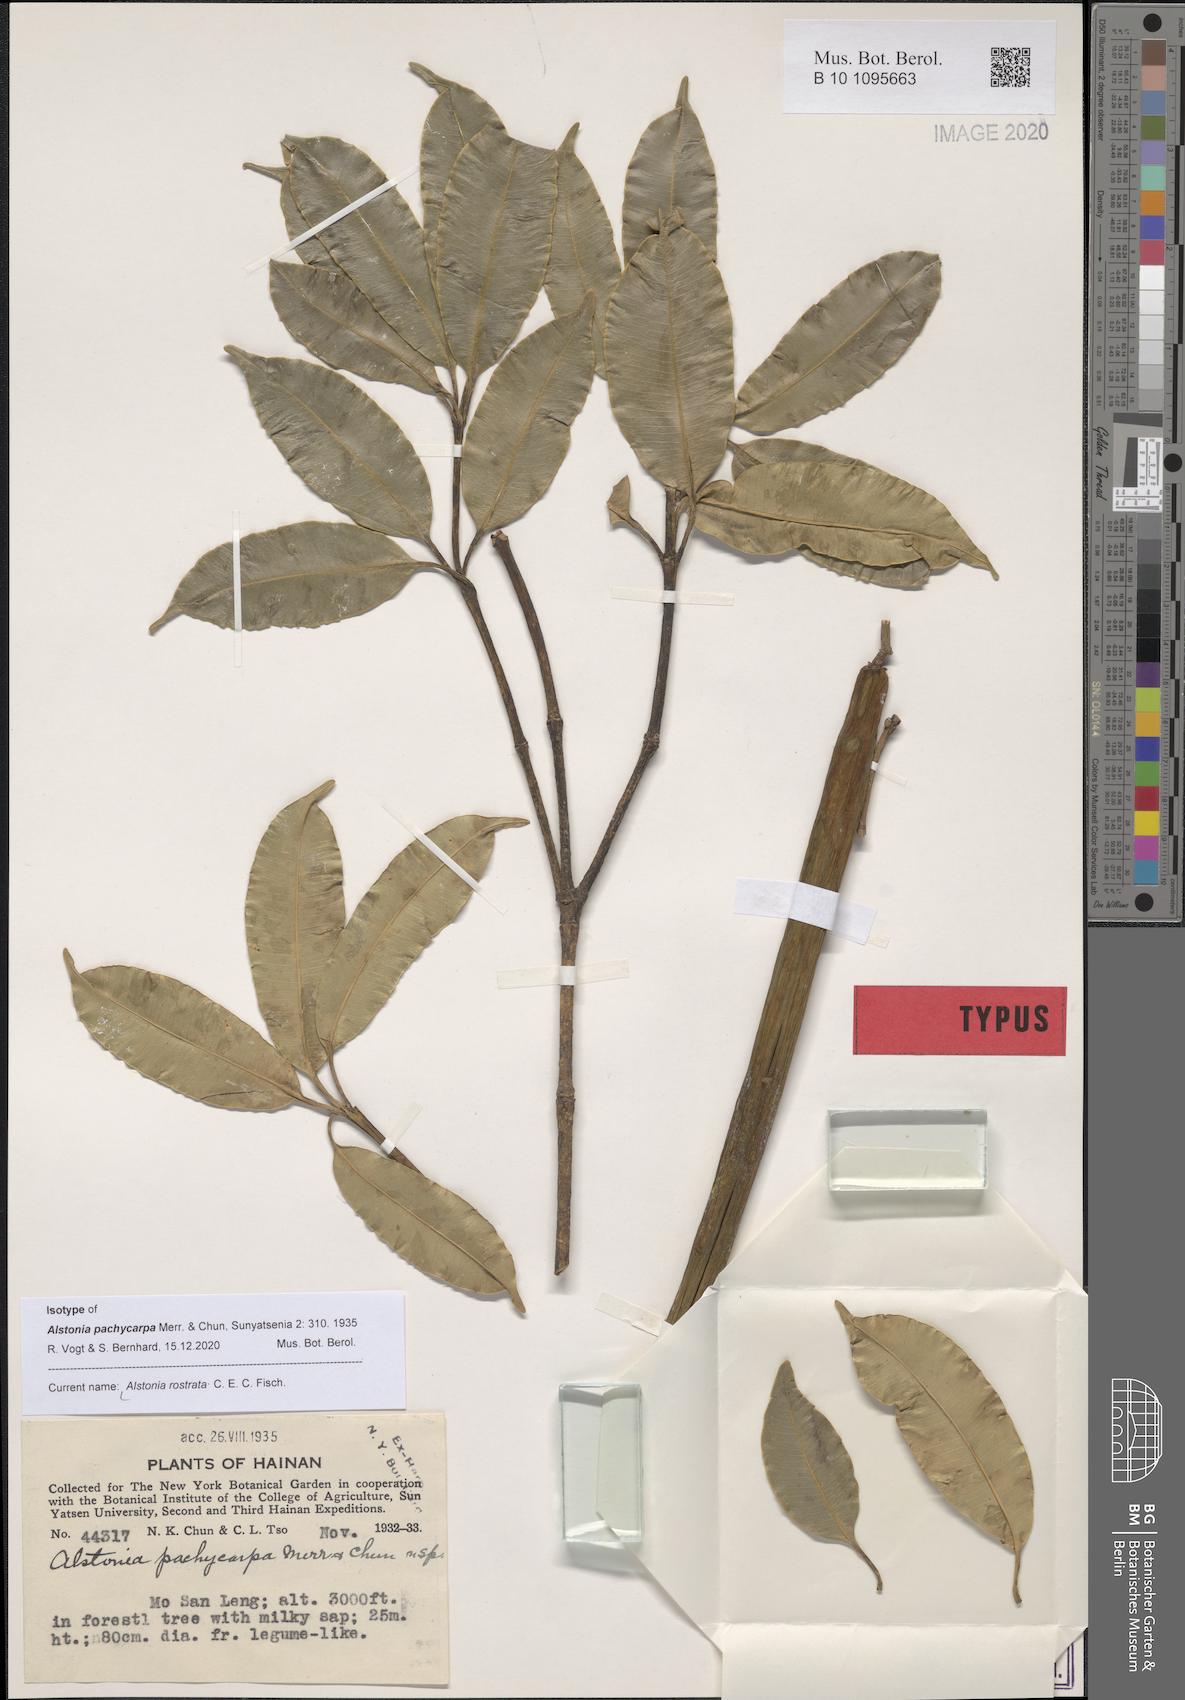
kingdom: Plantae
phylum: Tracheophyta
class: Magnoliopsida
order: Gentianales
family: Apocynaceae
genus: Alstonia
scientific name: Alstonia rostrata
